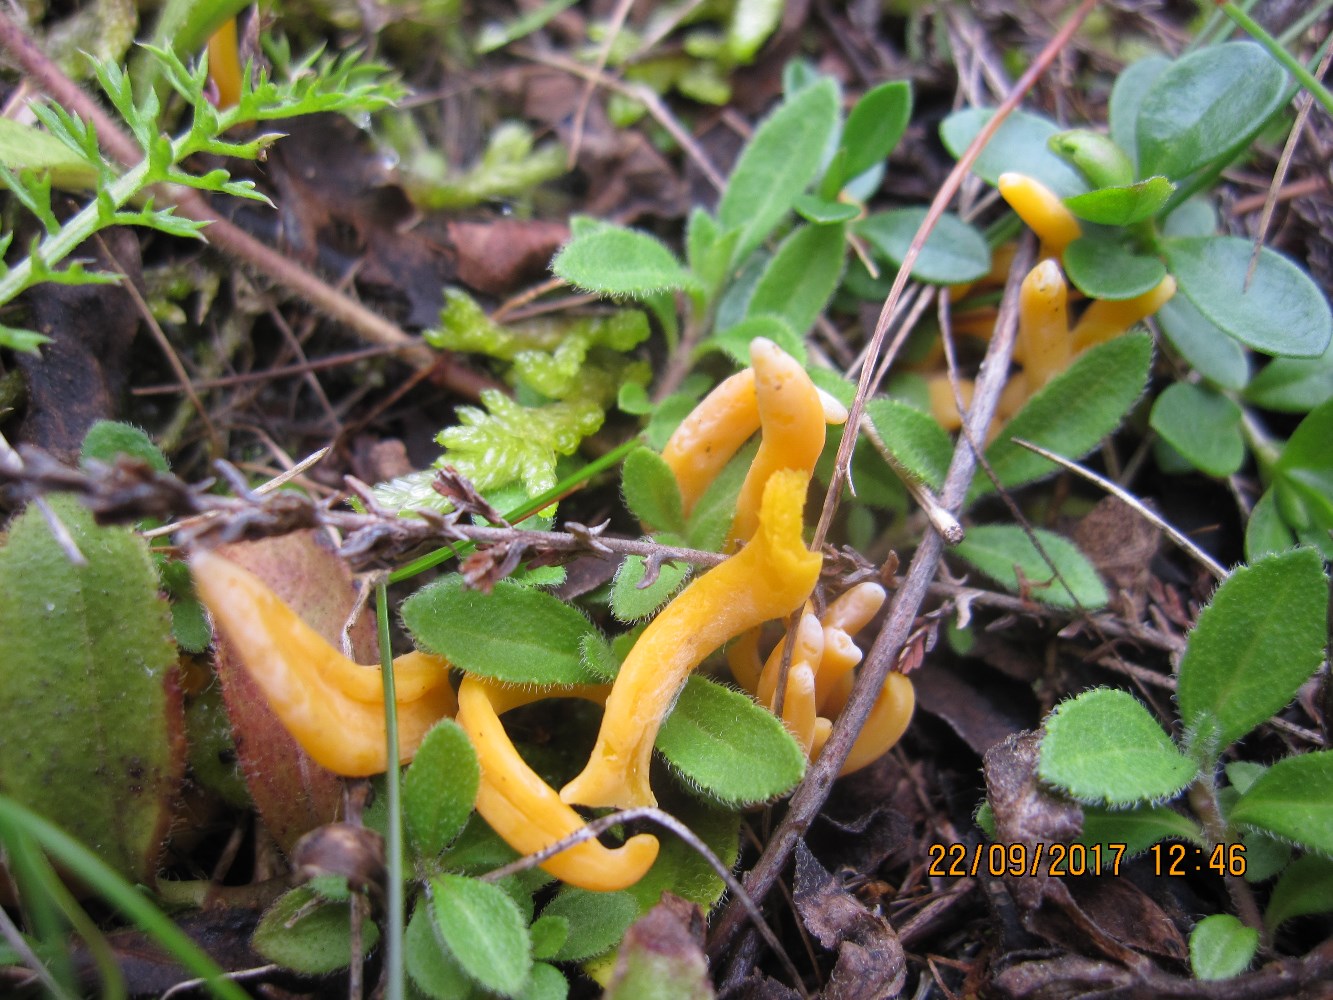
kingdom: Fungi
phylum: Basidiomycota
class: Agaricomycetes
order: Agaricales
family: Clavariaceae
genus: Clavulinopsis
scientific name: Clavulinopsis luteoalba
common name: abrikos-køllesvamp
